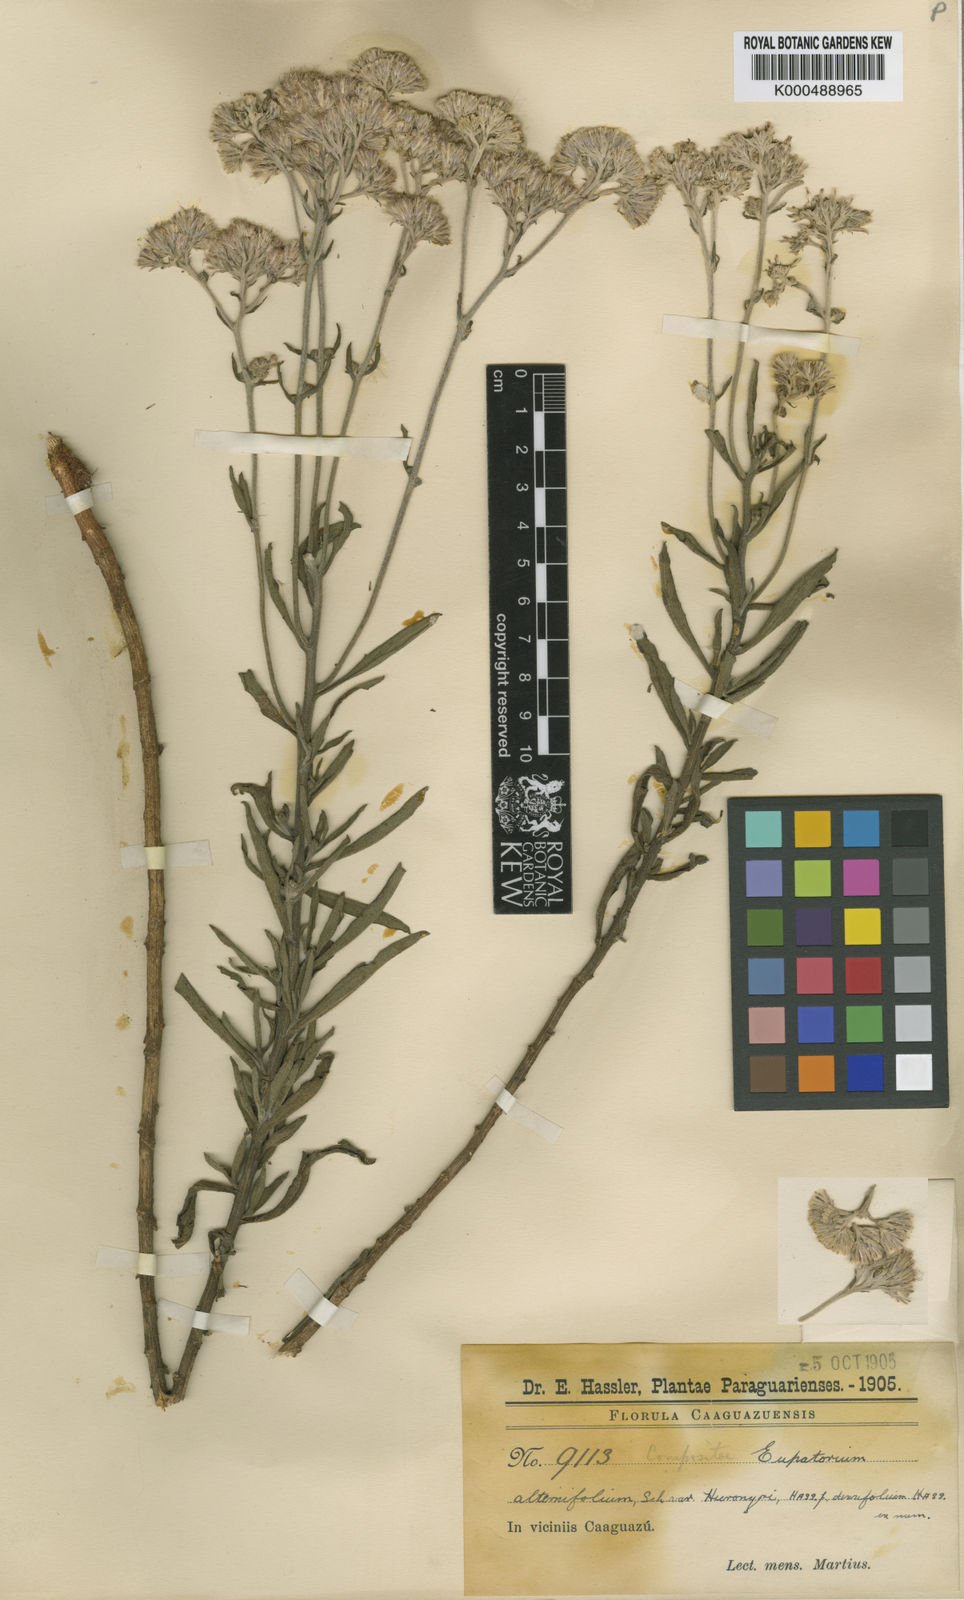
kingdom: Plantae
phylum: Tracheophyta
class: Magnoliopsida
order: Asterales
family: Asteraceae
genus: Gyptis
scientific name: Gyptis crassipes
